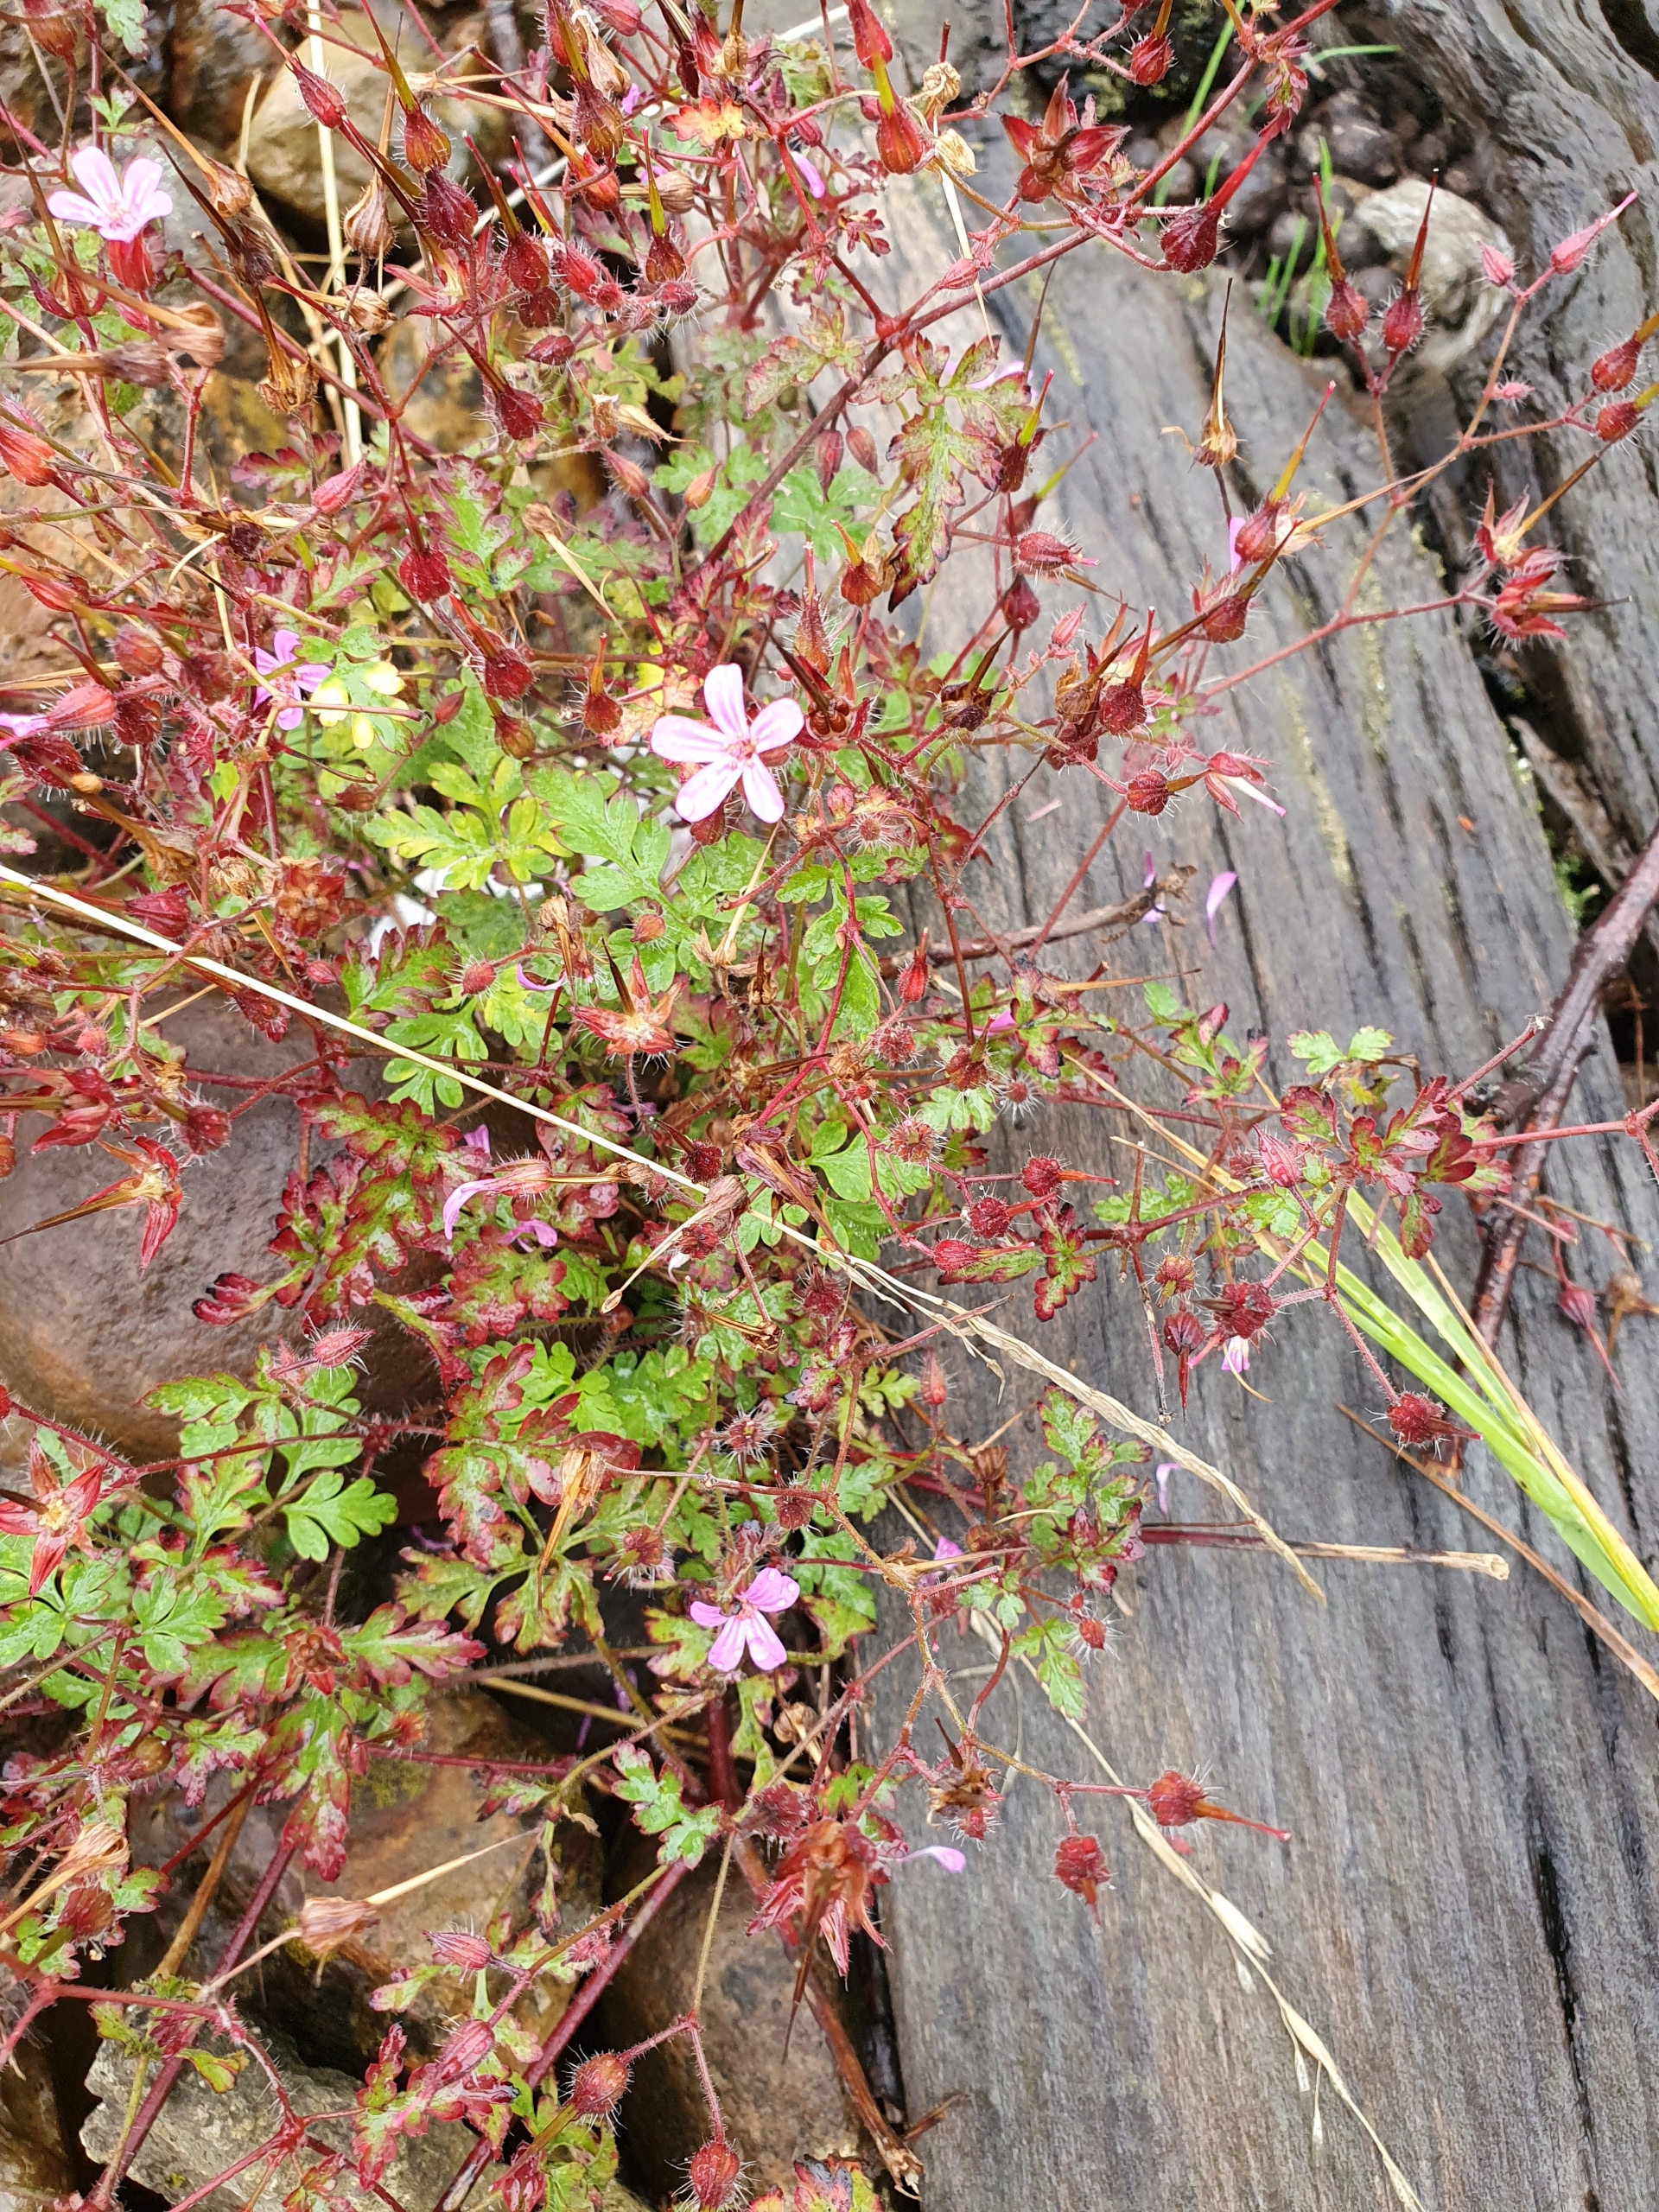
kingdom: Plantae
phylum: Tracheophyta
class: Magnoliopsida
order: Geraniales
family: Geraniaceae
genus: Geranium
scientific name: Geranium robertianum
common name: Stinkende storkenæb
